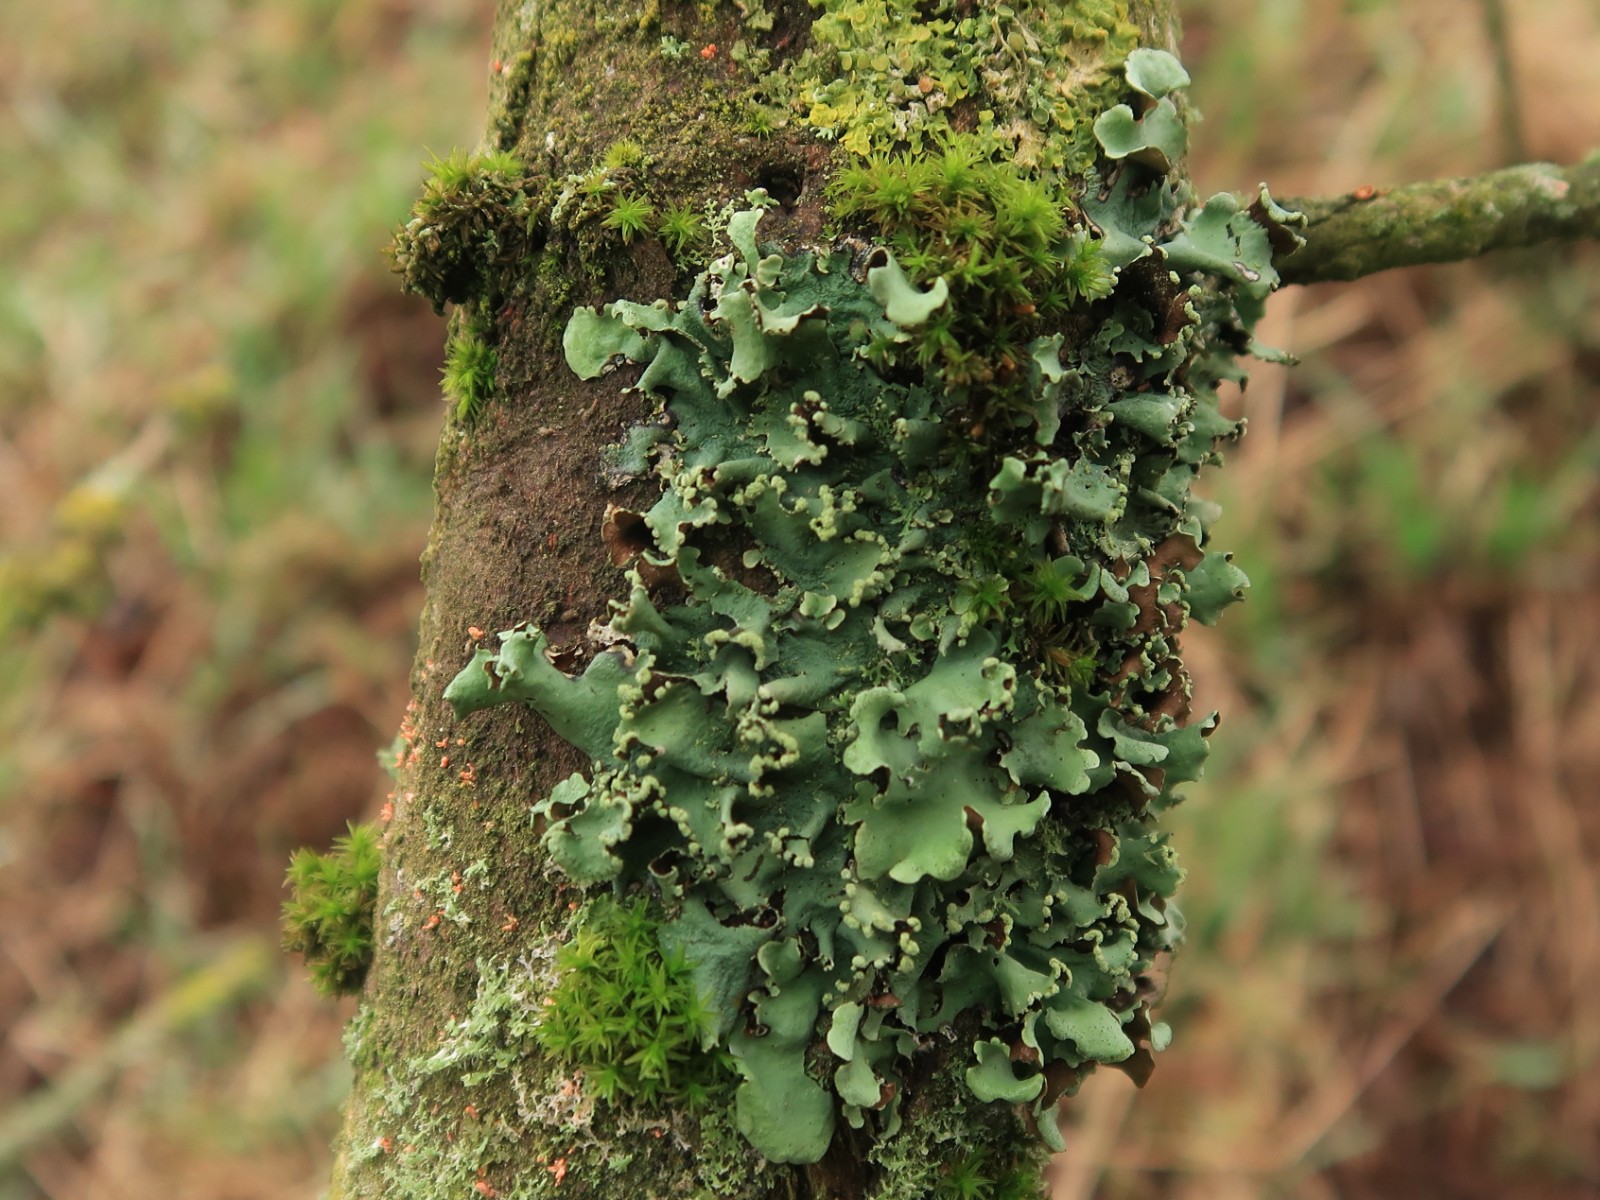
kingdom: Fungi
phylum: Ascomycota
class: Lecanoromycetes
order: Lecanorales
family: Parmeliaceae
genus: Parmotrema
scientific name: Parmotrema perlatum
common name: trådet skållav
